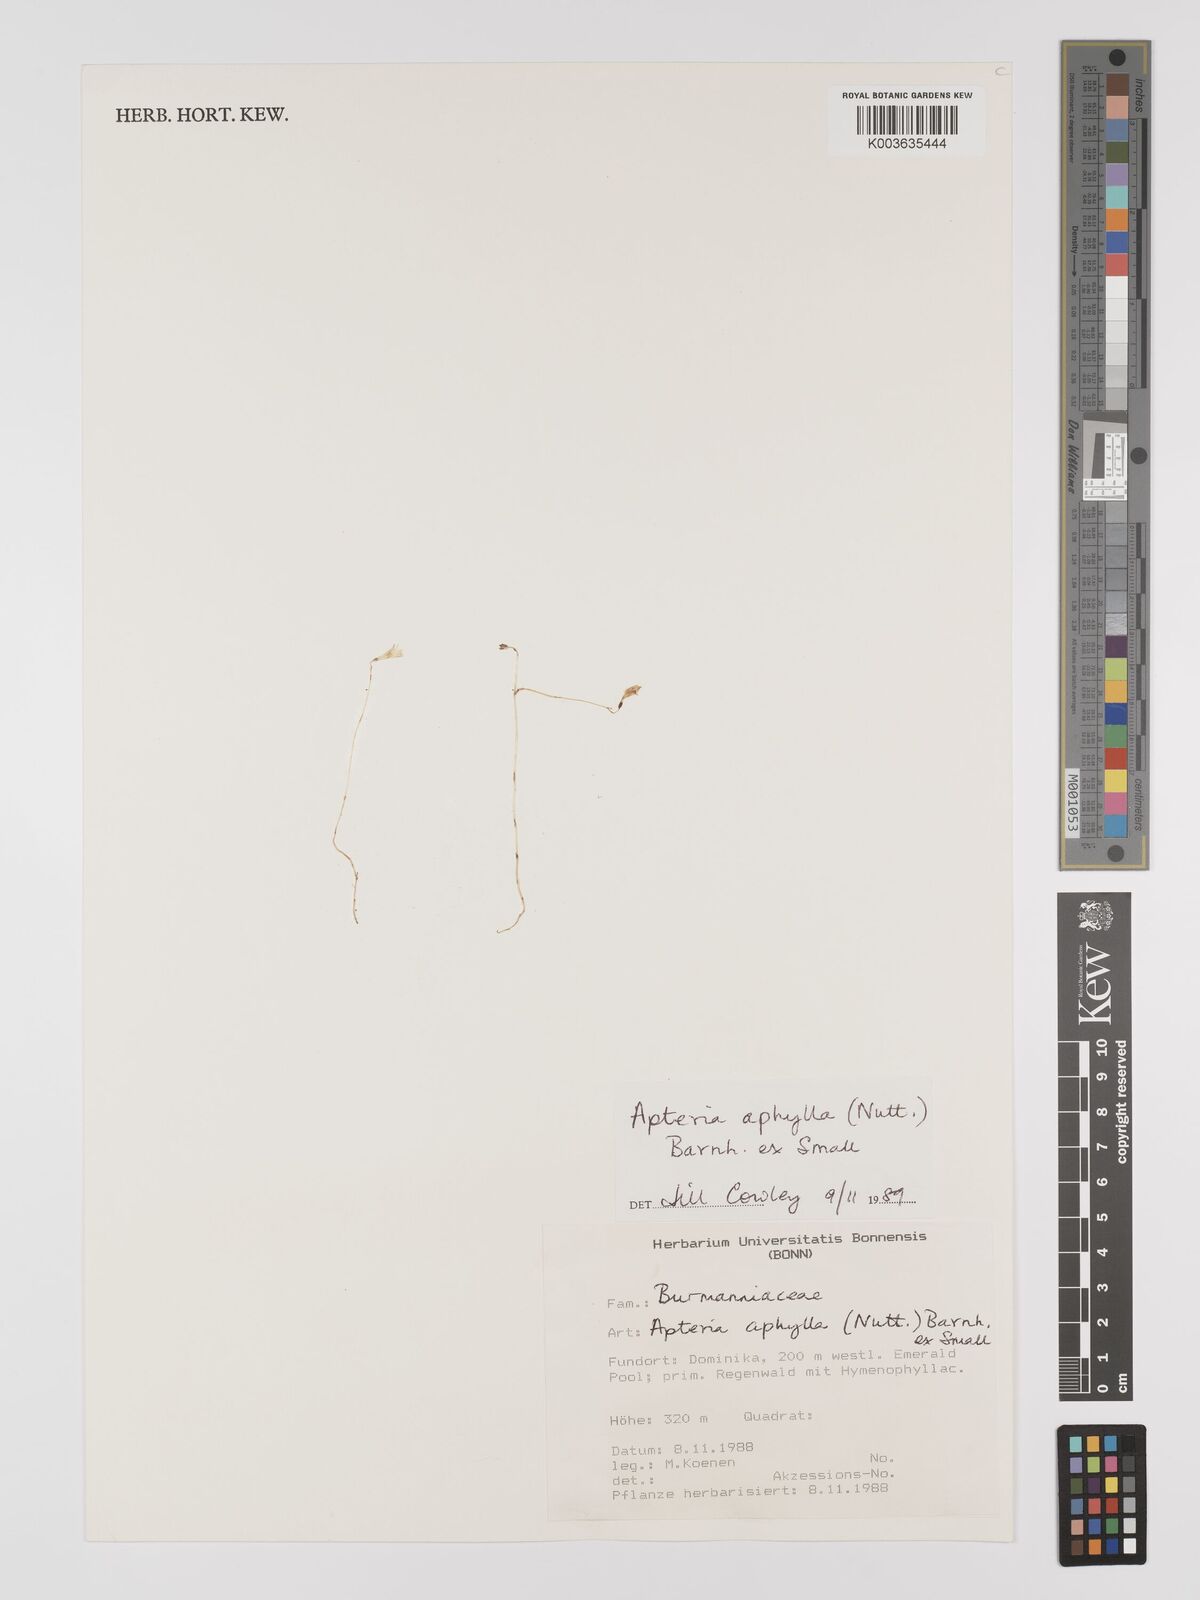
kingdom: Plantae
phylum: Tracheophyta
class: Liliopsida
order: Dioscoreales
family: Burmanniaceae
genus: Apteria
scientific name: Apteria aphylla
